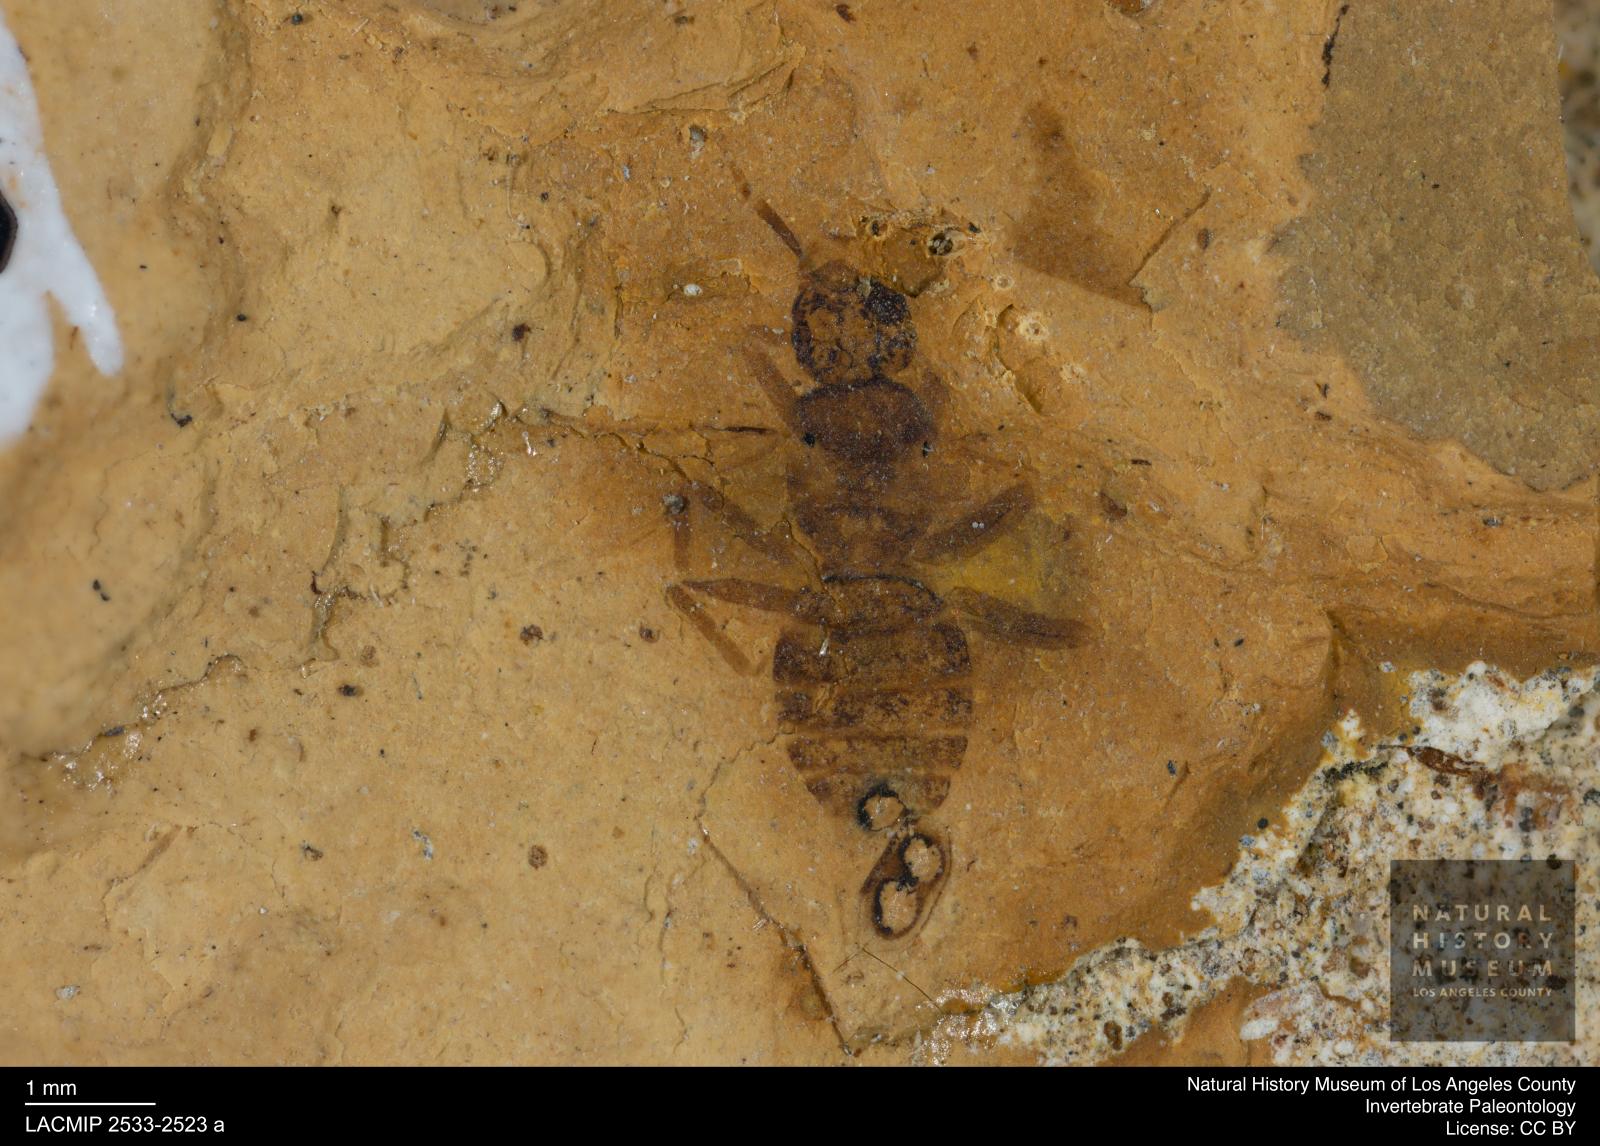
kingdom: Animalia
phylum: Arthropoda
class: Insecta
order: Hymenoptera
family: Formicidae
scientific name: Formicidae
